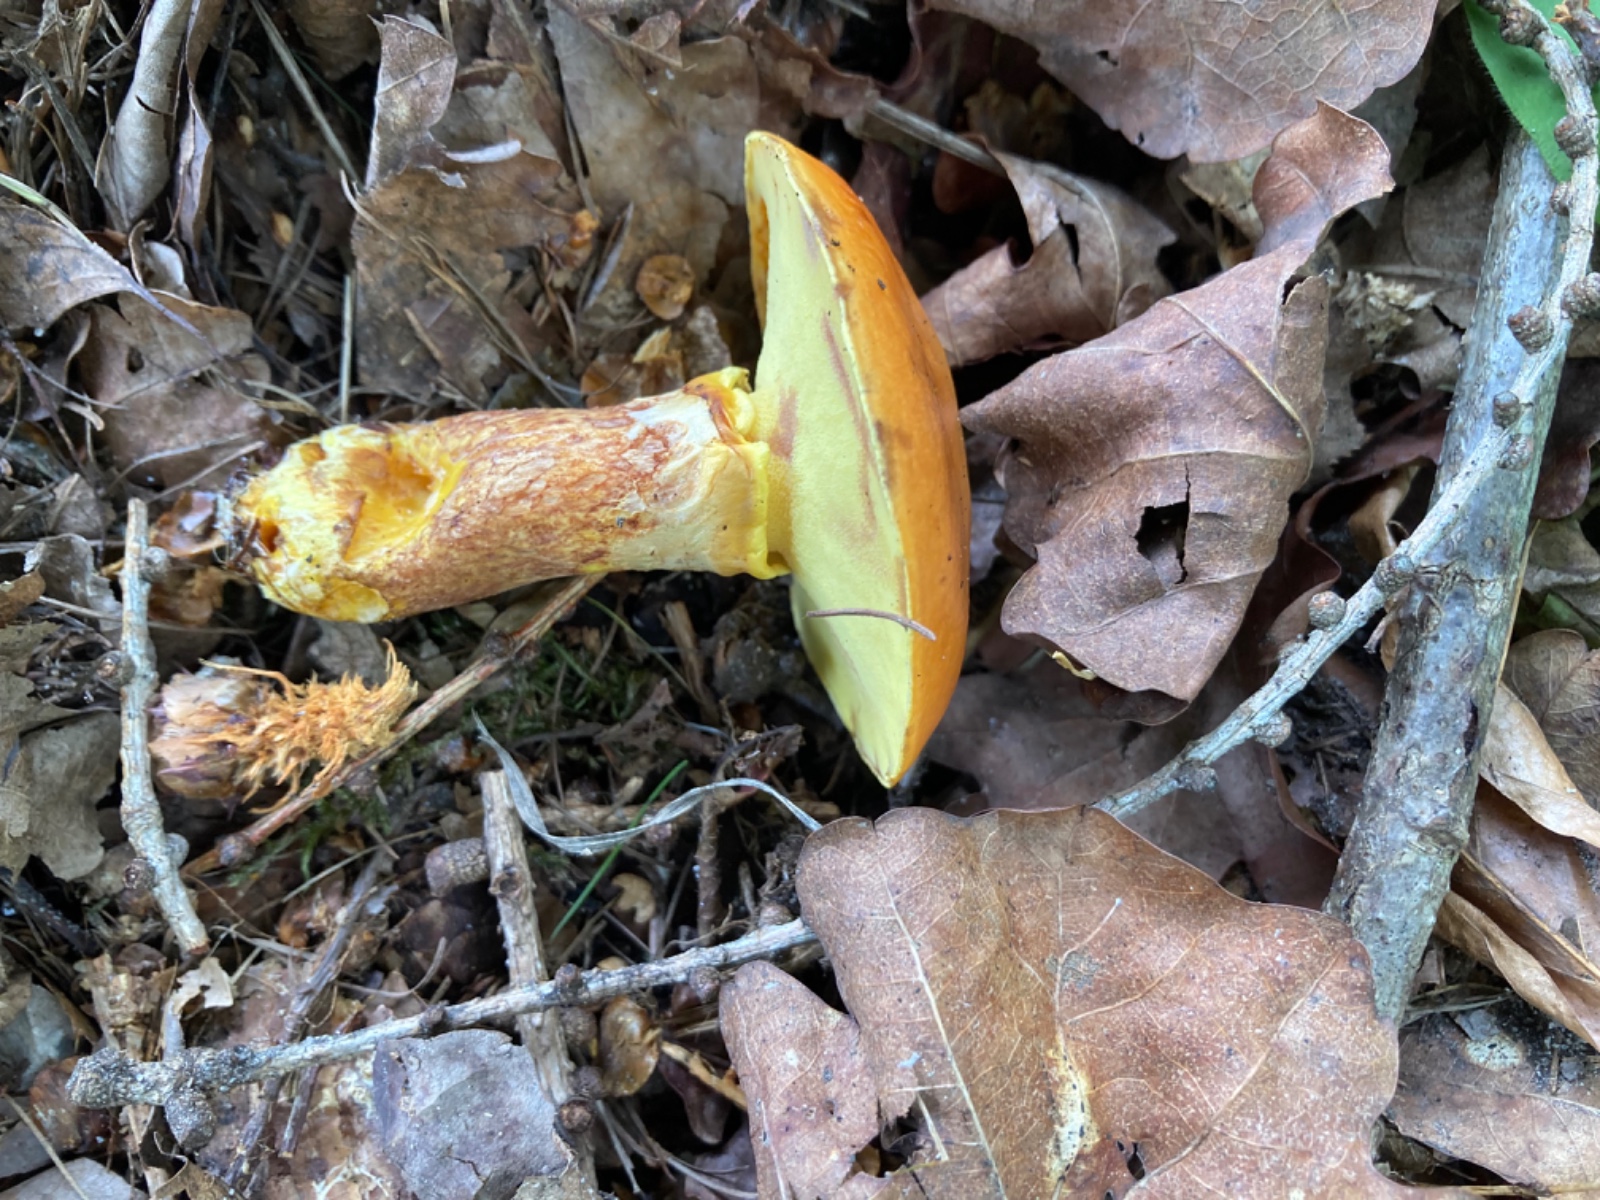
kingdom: Fungi
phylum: Basidiomycota
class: Agaricomycetes
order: Boletales
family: Suillaceae
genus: Suillus
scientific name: Suillus grevillei
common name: lærke-slimrørhat
